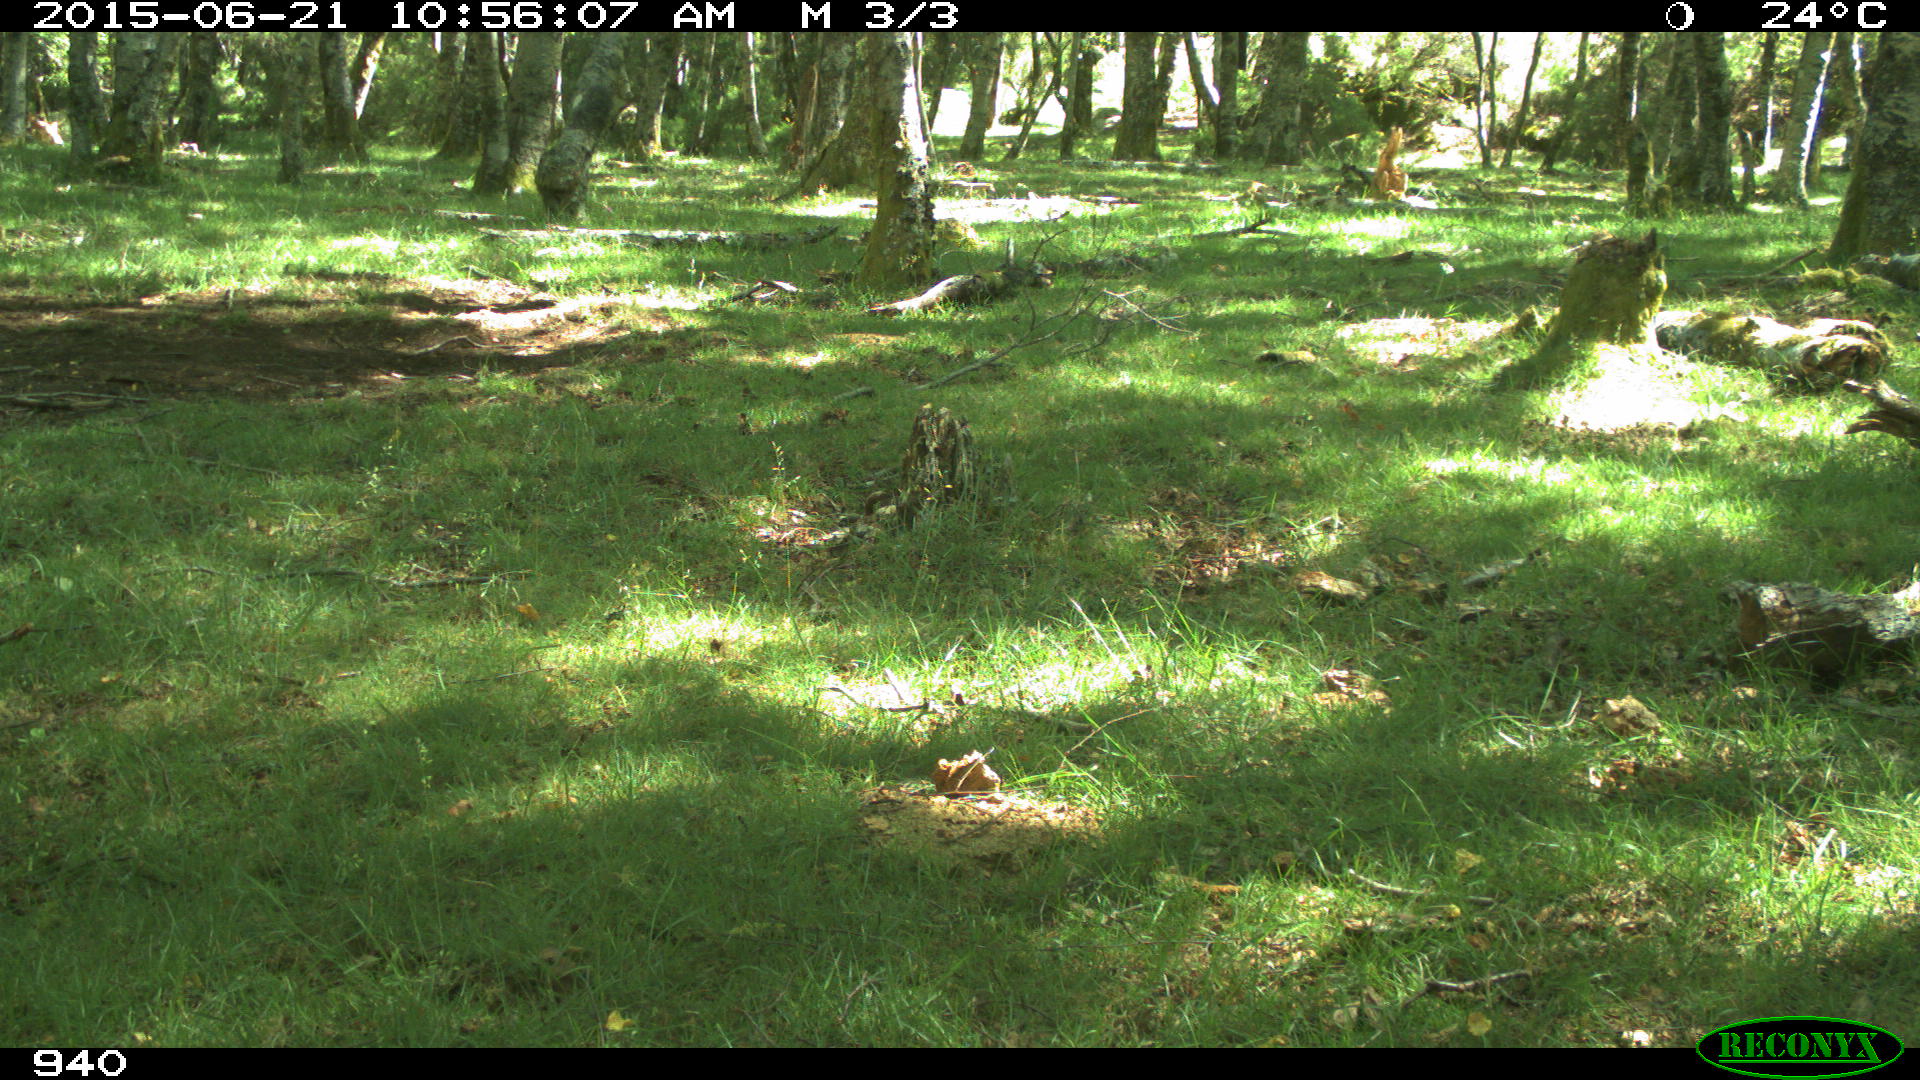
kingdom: Animalia
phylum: Chordata
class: Mammalia
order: Artiodactyla
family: Bovidae
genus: Bos
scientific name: Bos taurus
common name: Domesticated cattle
